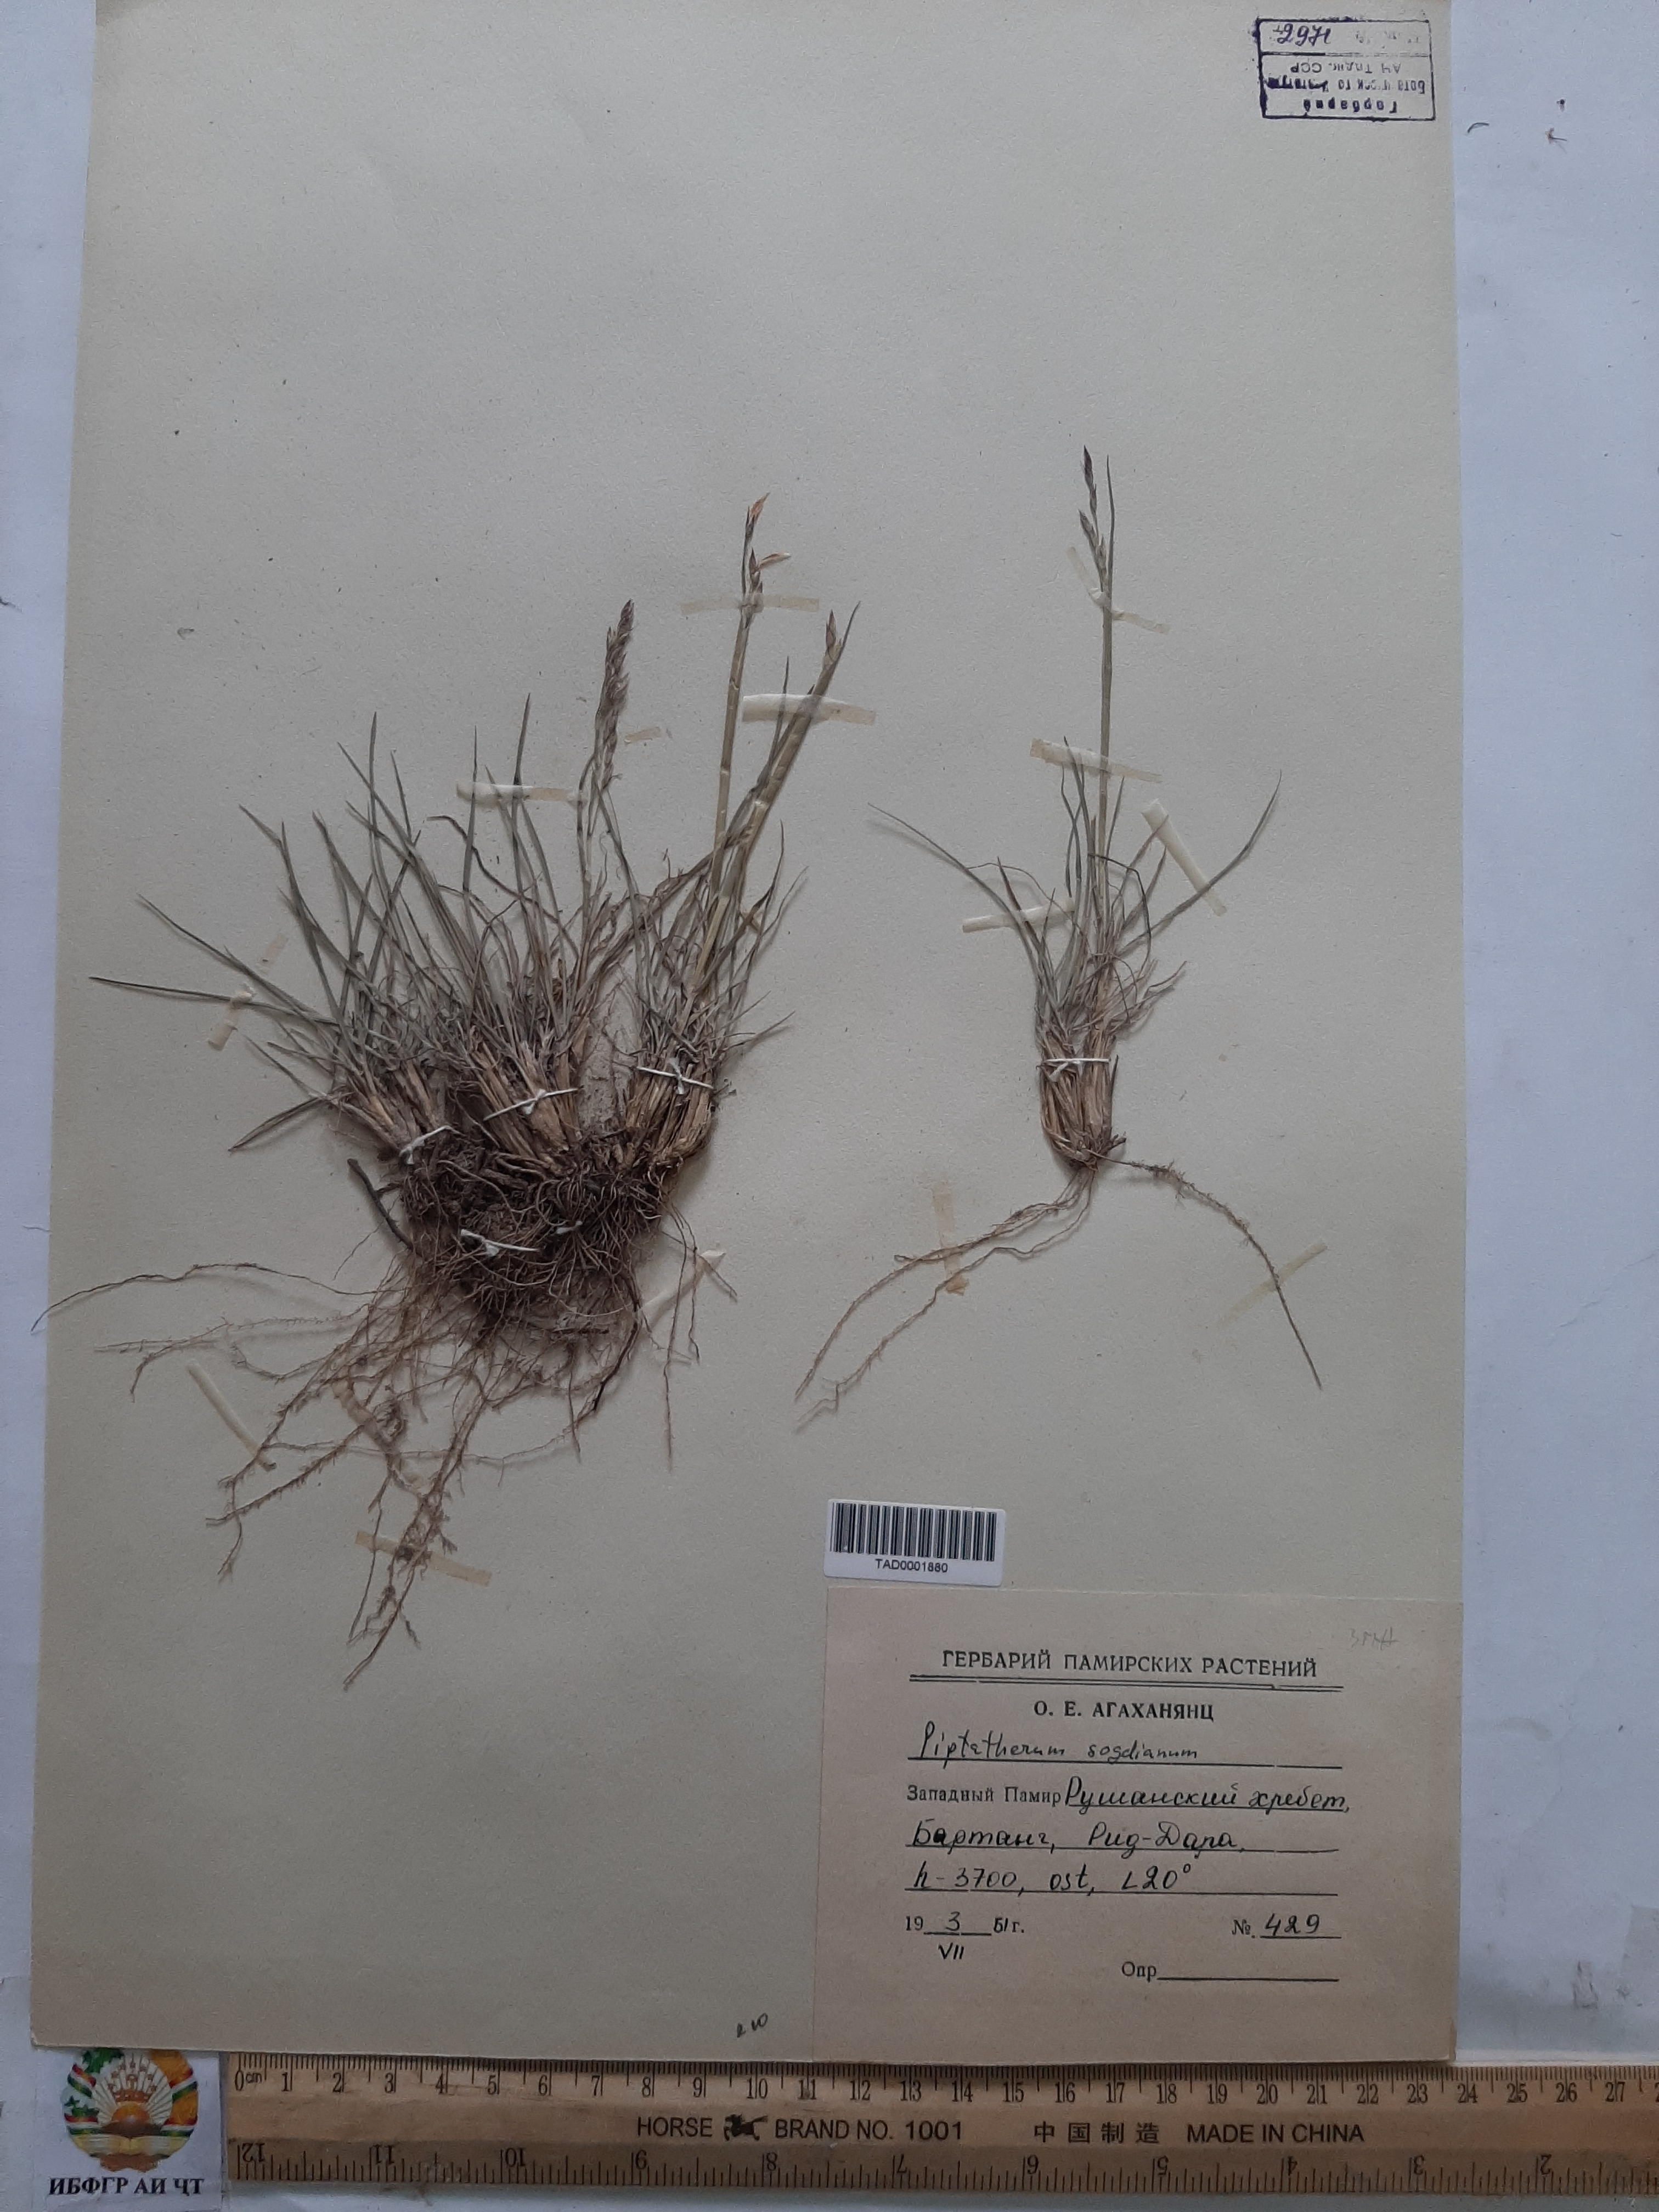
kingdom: Plantae
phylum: Tracheophyta
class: Liliopsida
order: Poales
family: Poaceae
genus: Piptatherum
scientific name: Piptatherum sogdianum
